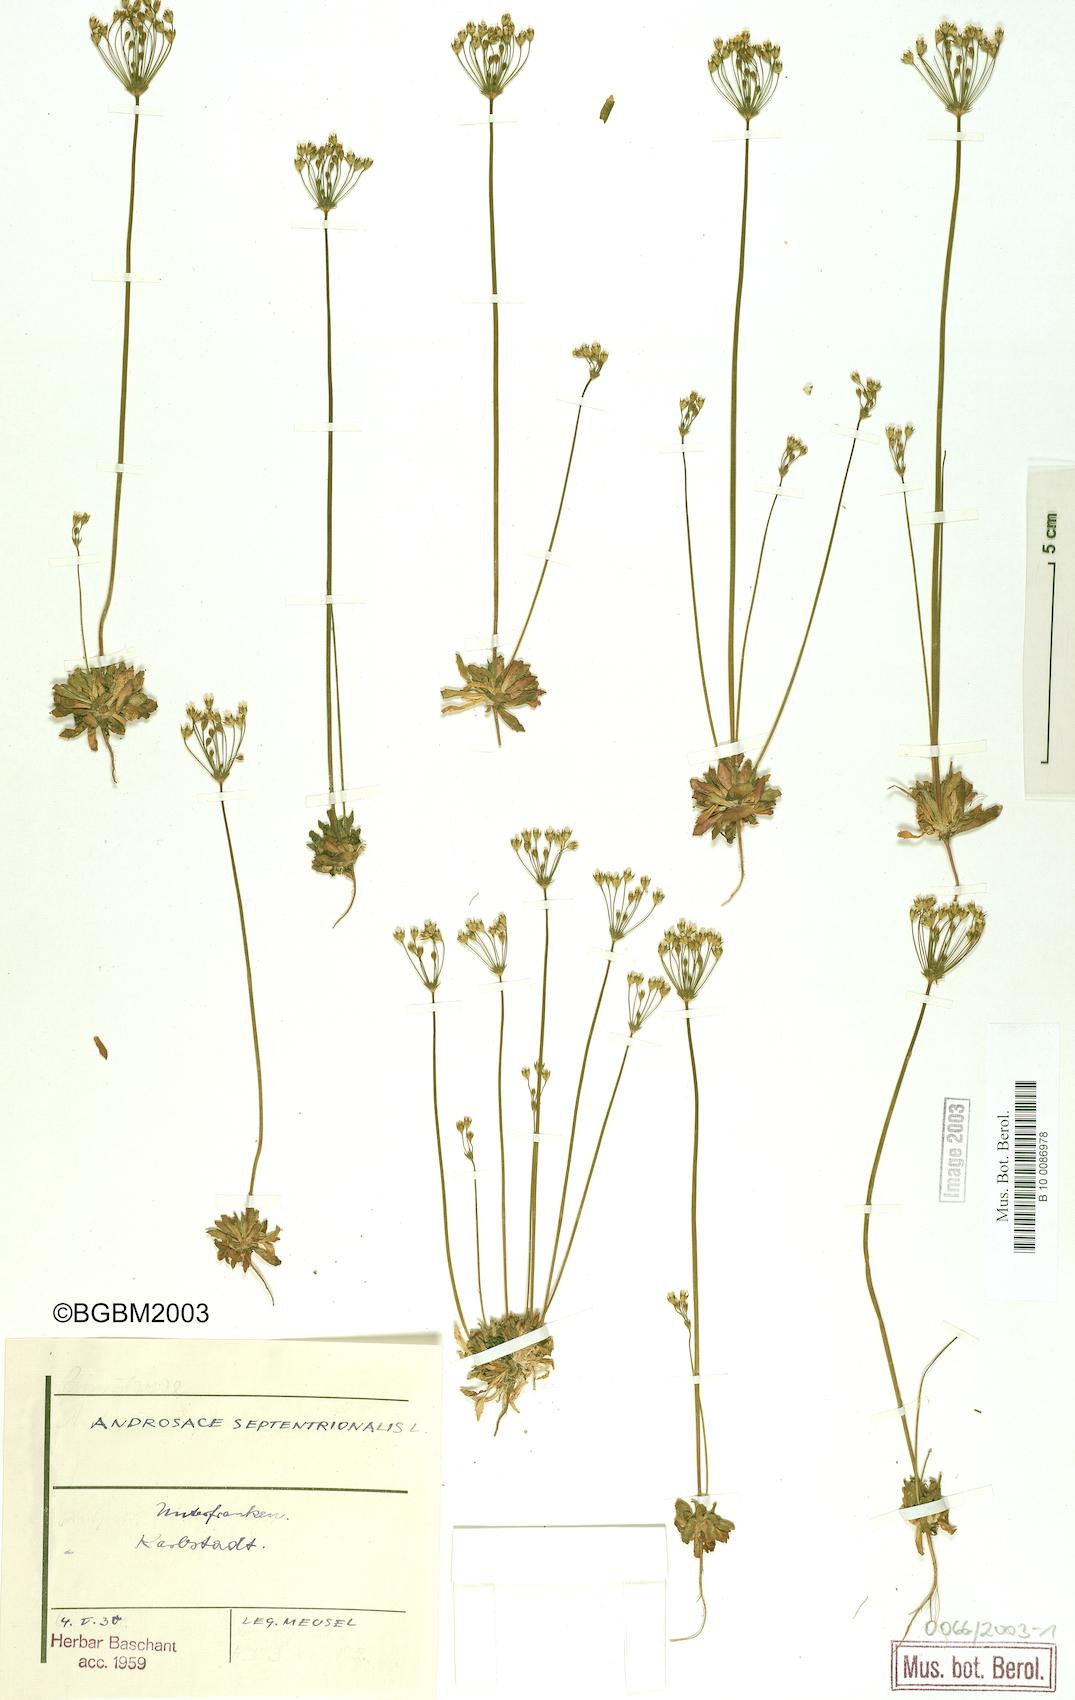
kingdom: Plantae
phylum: Tracheophyta
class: Magnoliopsida
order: Ericales
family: Primulaceae
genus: Androsace
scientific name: Androsace septentrionalis
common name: Hairy northern fairy-candelabra
